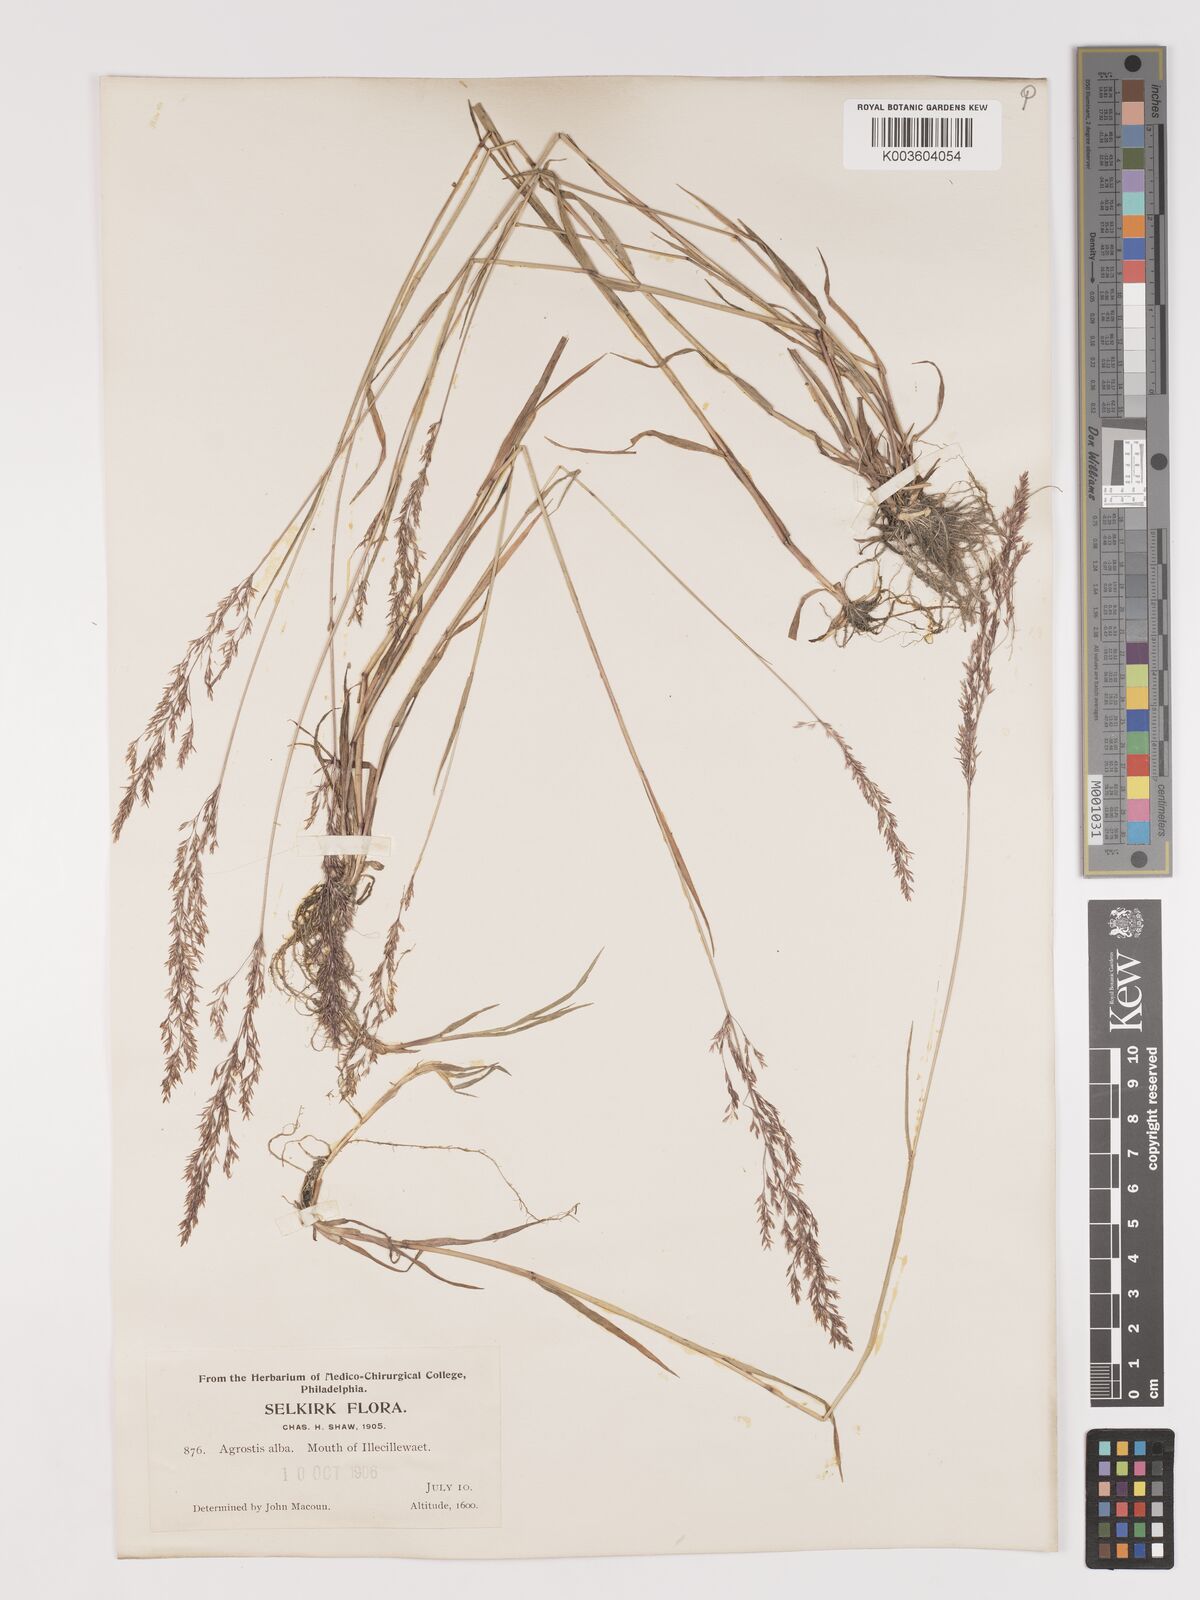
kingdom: Plantae
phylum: Tracheophyta
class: Liliopsida
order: Poales
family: Poaceae
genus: Agrostis
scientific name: Agrostis gigantea
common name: Black bent
